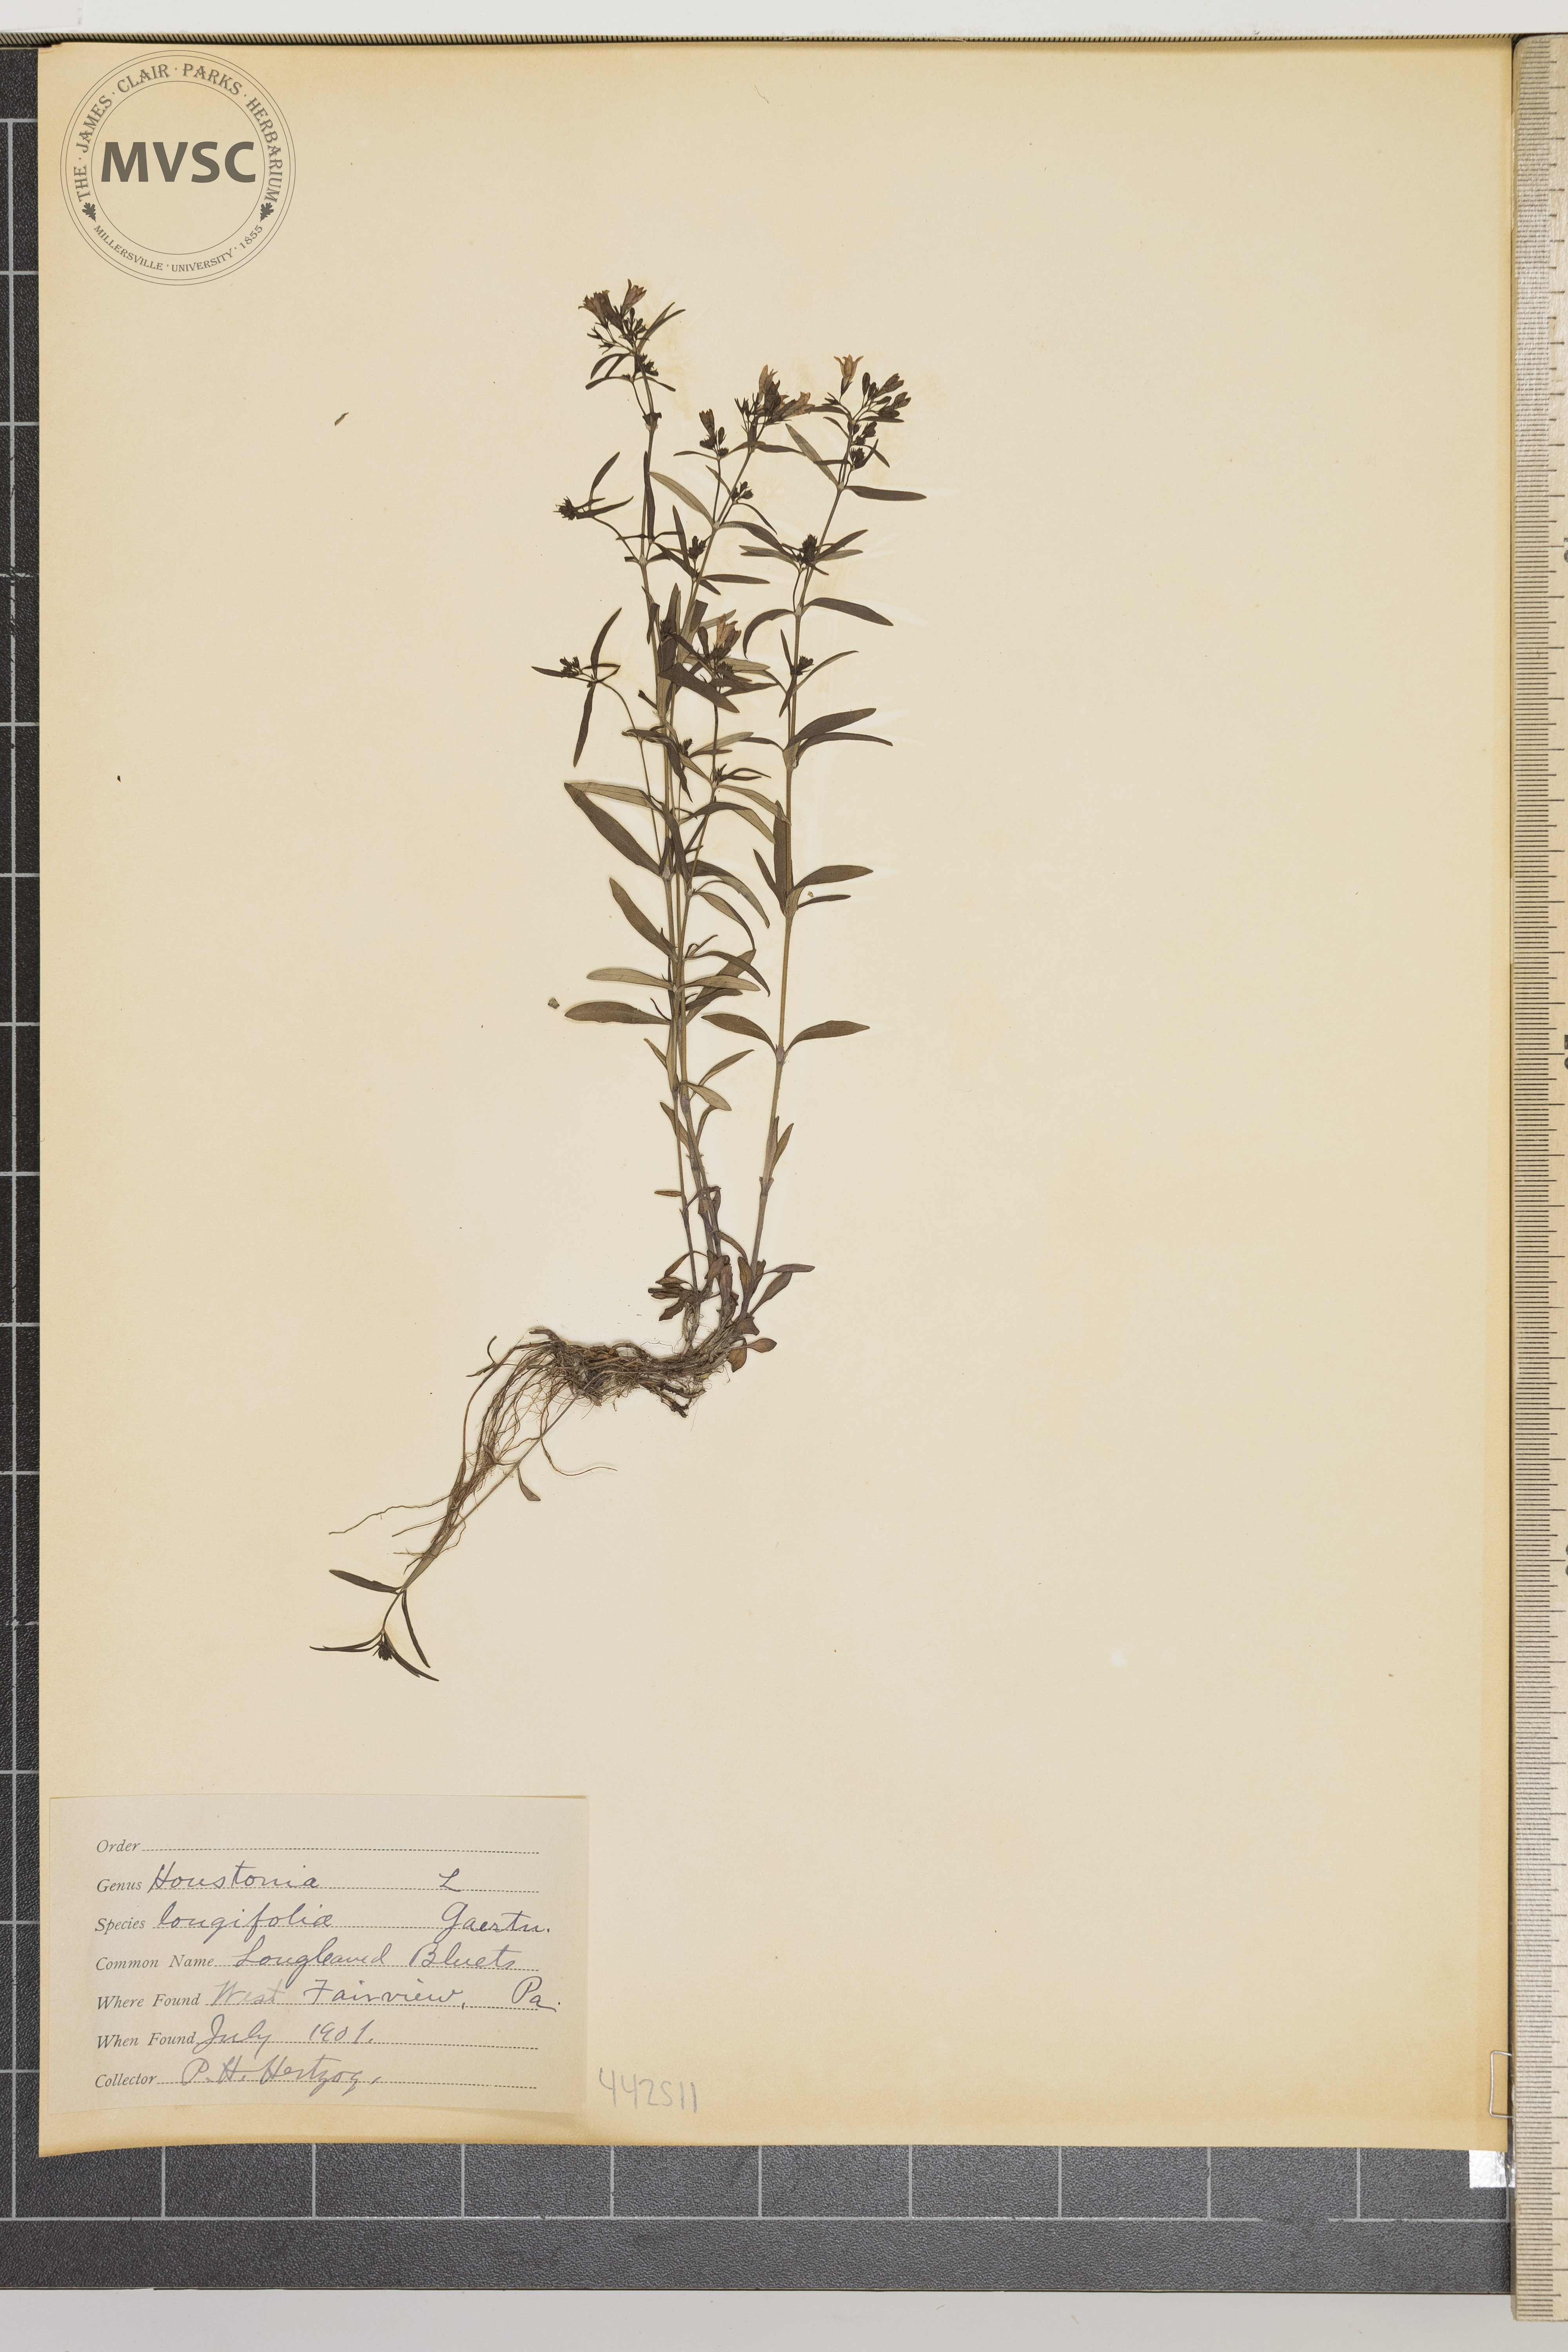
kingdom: Plantae
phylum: Tracheophyta
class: Magnoliopsida
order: Gentianales
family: Rubiaceae
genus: Houstonia
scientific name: Houstonia longifolia
